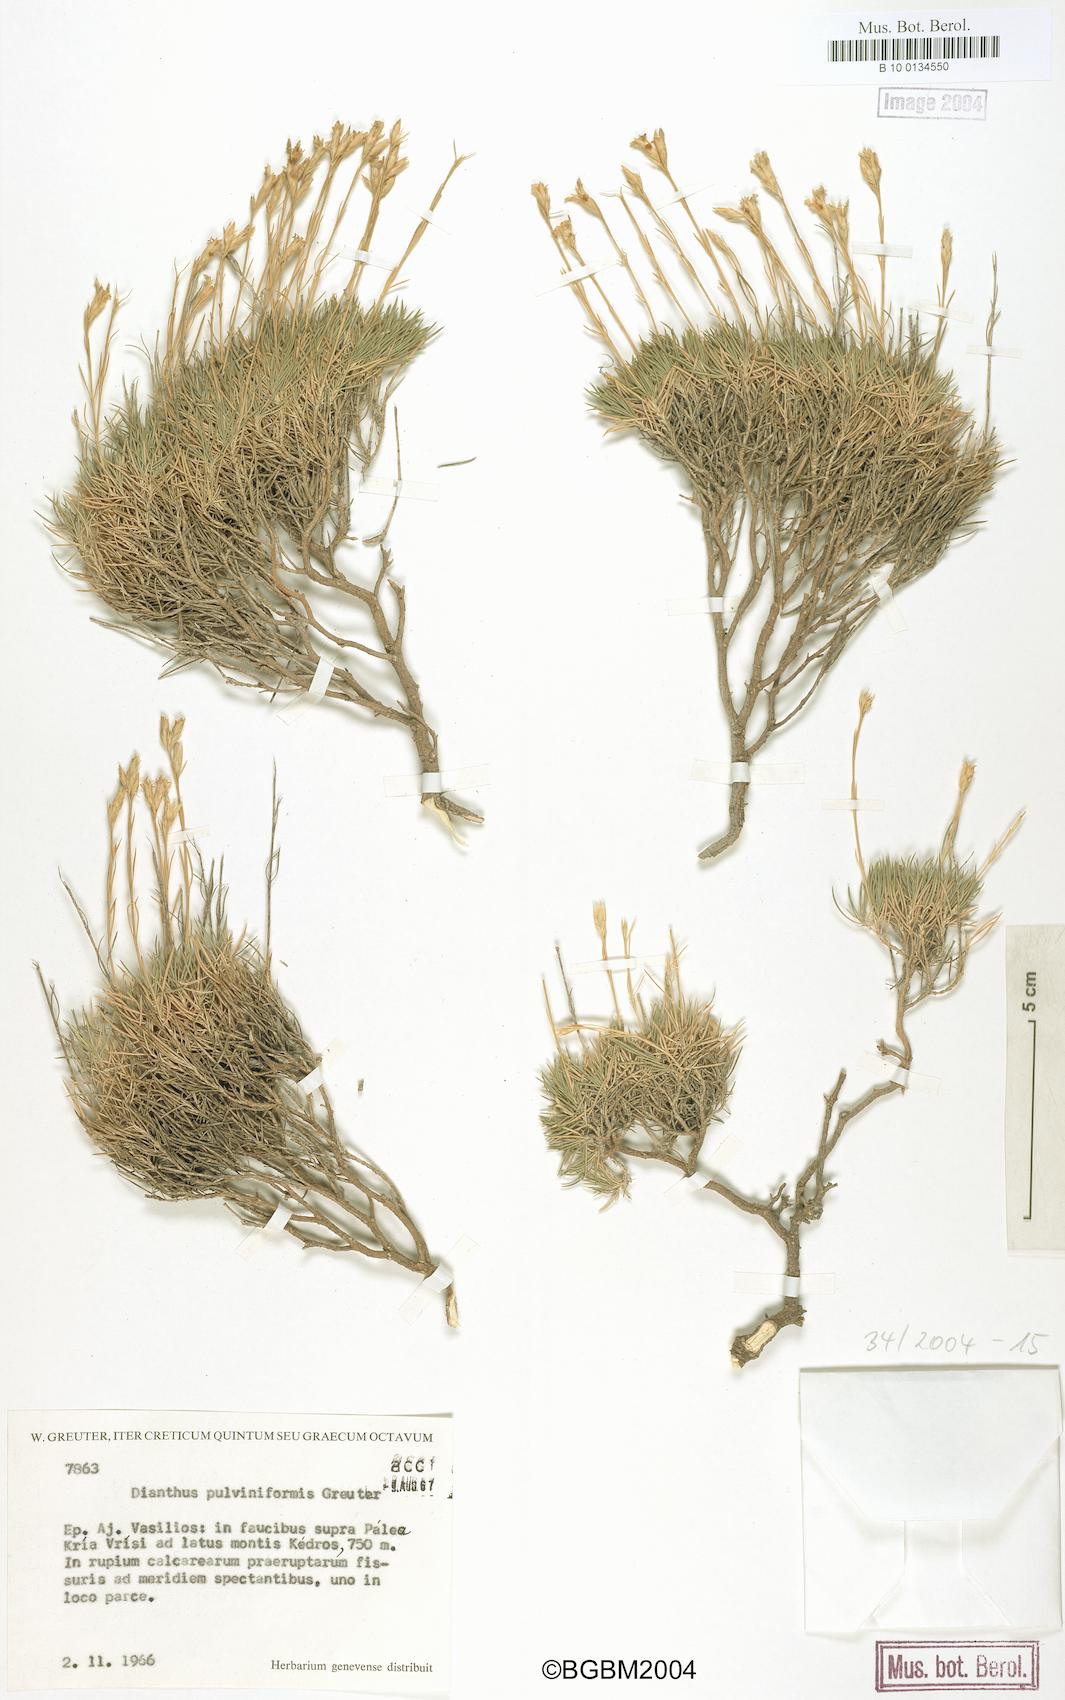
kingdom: Plantae
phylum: Tracheophyta
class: Magnoliopsida
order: Caryophyllales
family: Caryophyllaceae
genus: Dianthus
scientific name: Dianthus juniperinus
